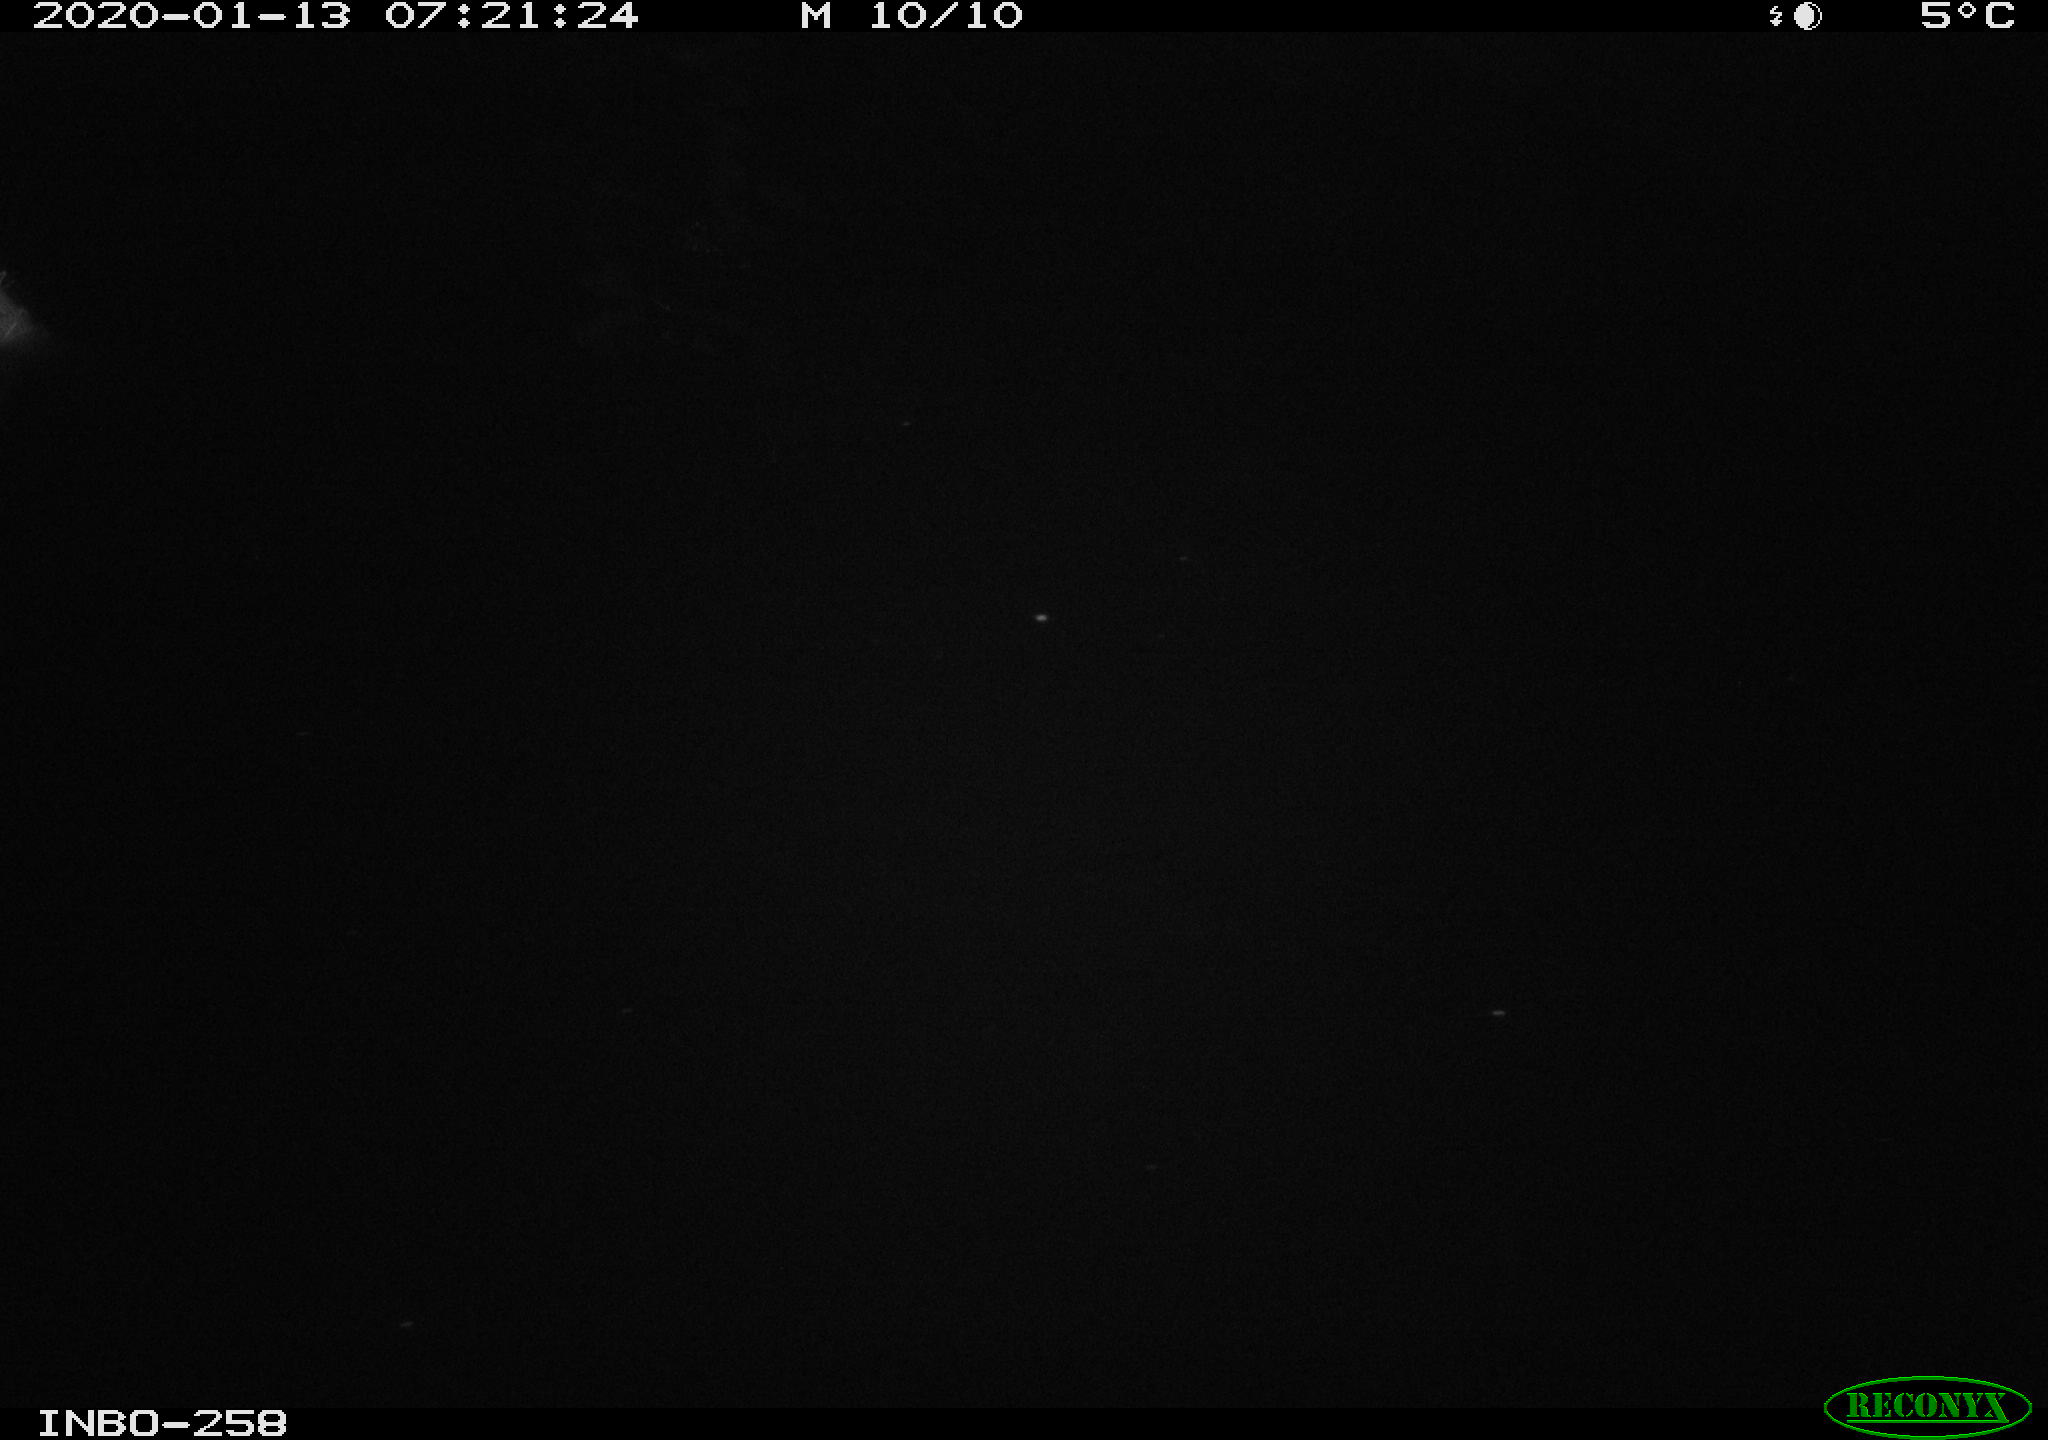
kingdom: Animalia
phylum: Chordata
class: Aves
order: Anseriformes
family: Anatidae
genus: Anas
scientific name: Anas platyrhynchos
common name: Mallard
